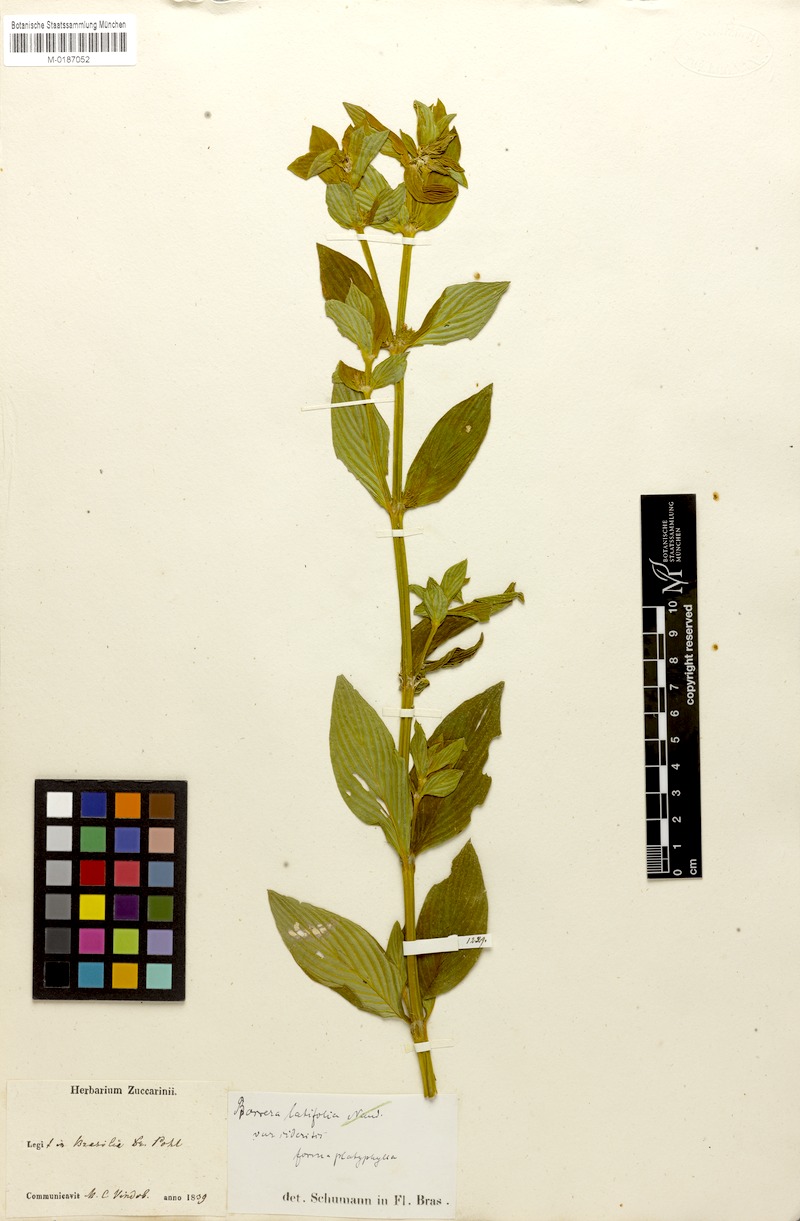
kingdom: Plantae
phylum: Tracheophyta
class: Magnoliopsida
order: Gentianales
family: Rubiaceae
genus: Spermacoce
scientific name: Spermacoce latifolia
